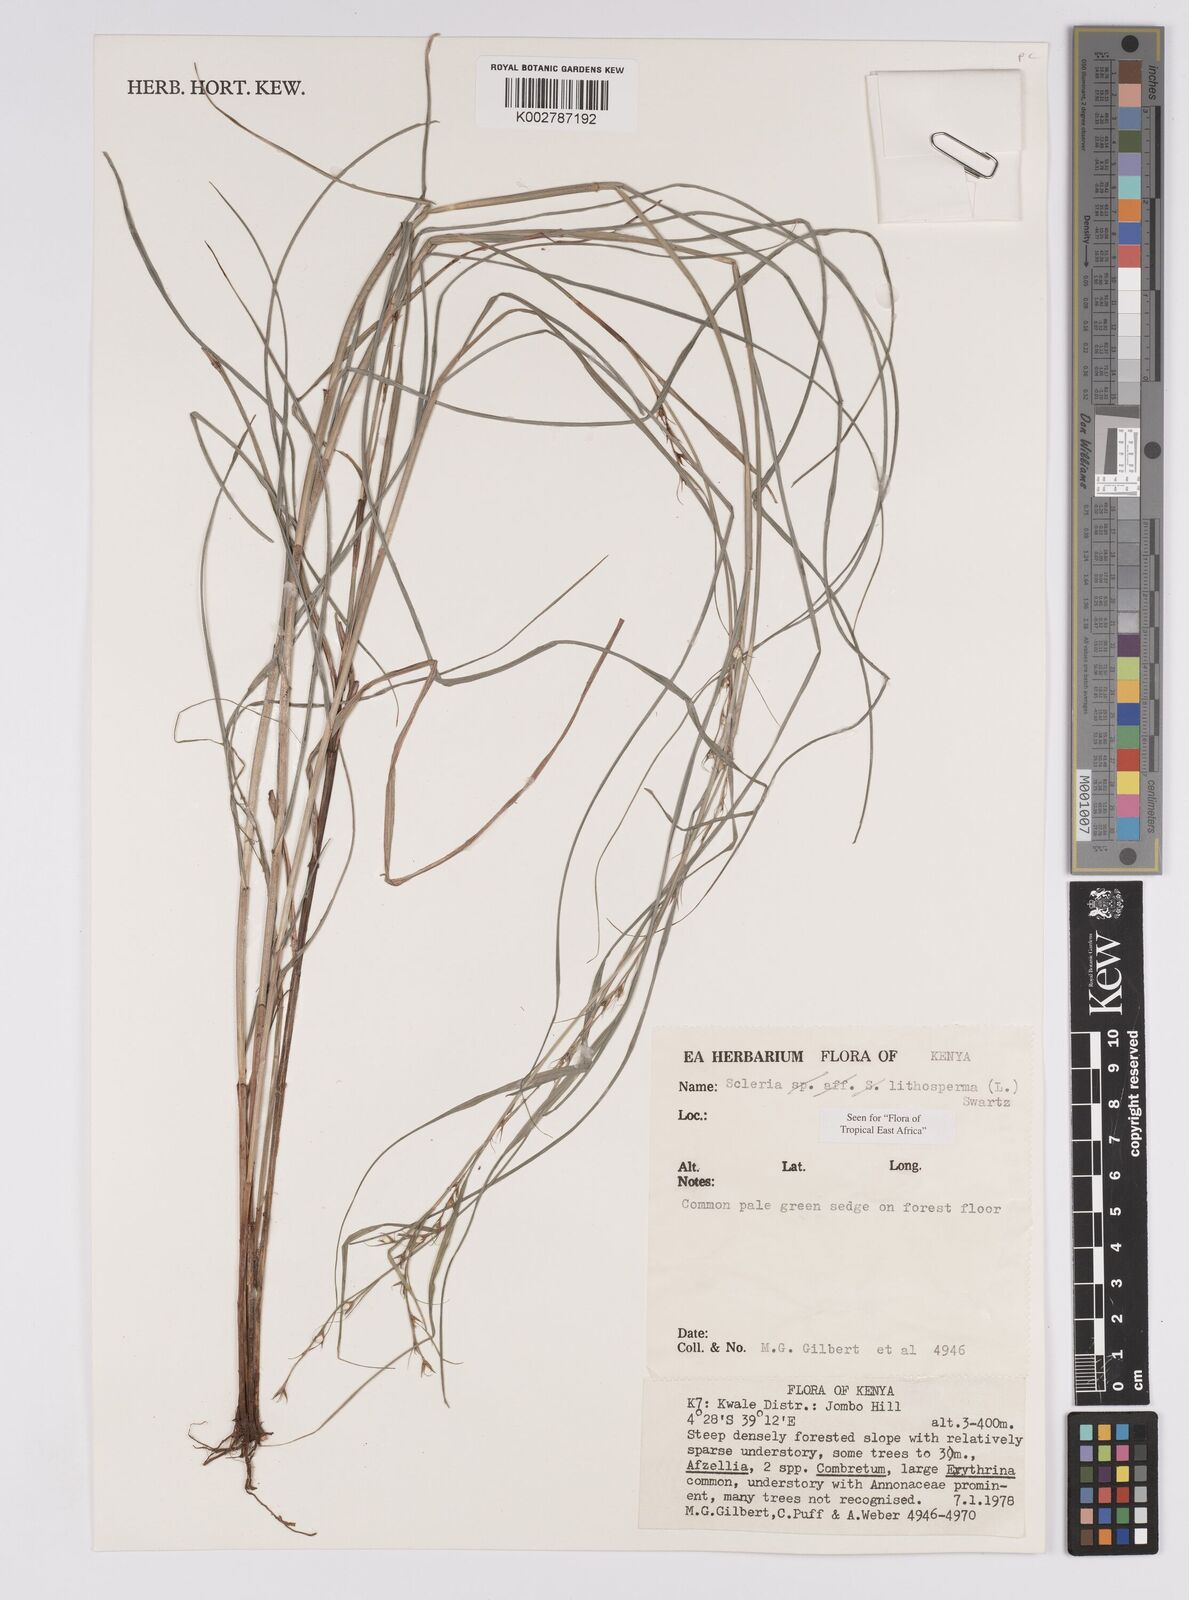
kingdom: Plantae
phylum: Tracheophyta
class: Liliopsida
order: Poales
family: Cyperaceae
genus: Scleria
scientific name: Scleria lithosperma
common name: Florida keys nut-rush
